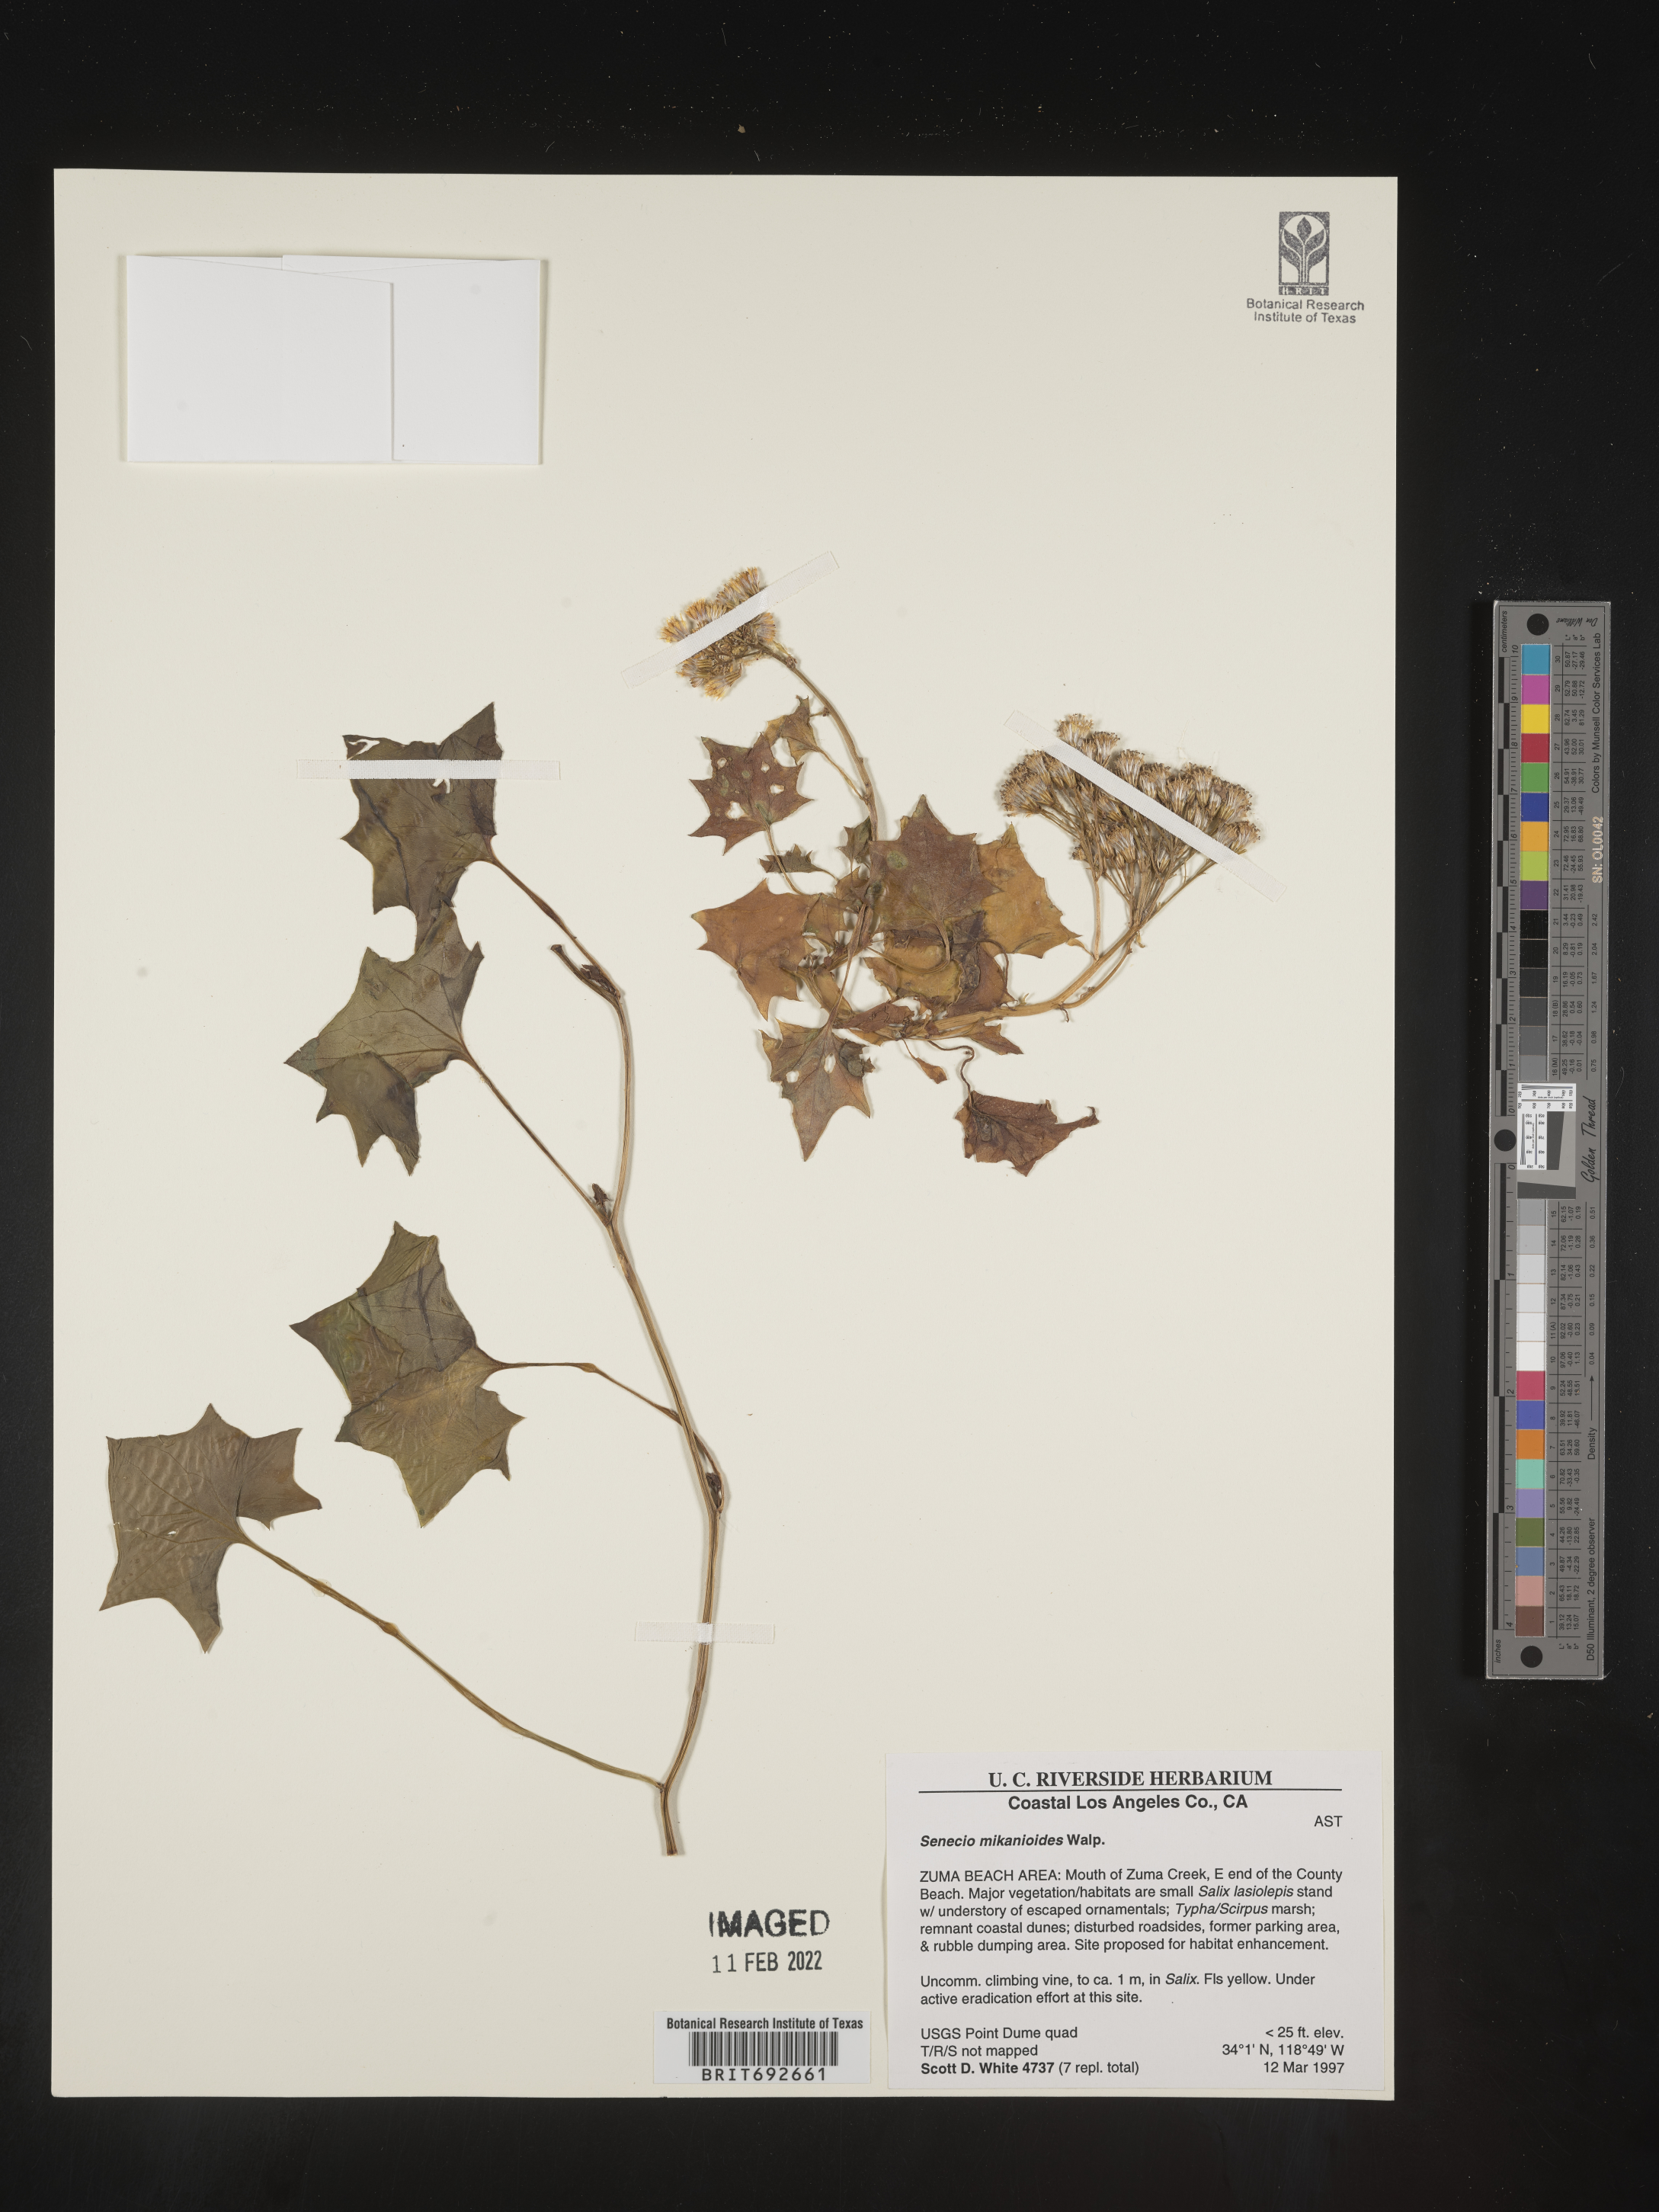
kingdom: Plantae
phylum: Tracheophyta
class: Magnoliopsida
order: Asterales
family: Asteraceae
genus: Delairea
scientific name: Delairea odorata
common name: Cape-ivy
